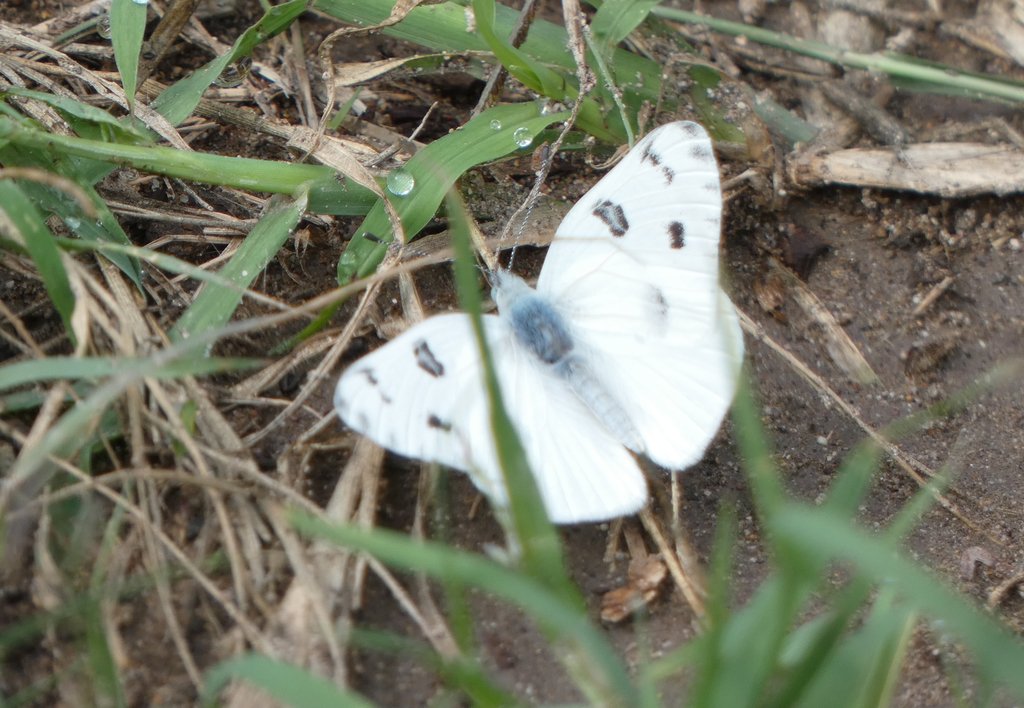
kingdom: Animalia
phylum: Arthropoda
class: Insecta
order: Lepidoptera
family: Pieridae
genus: Pontia
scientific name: Pontia protodice
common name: Checkered White
